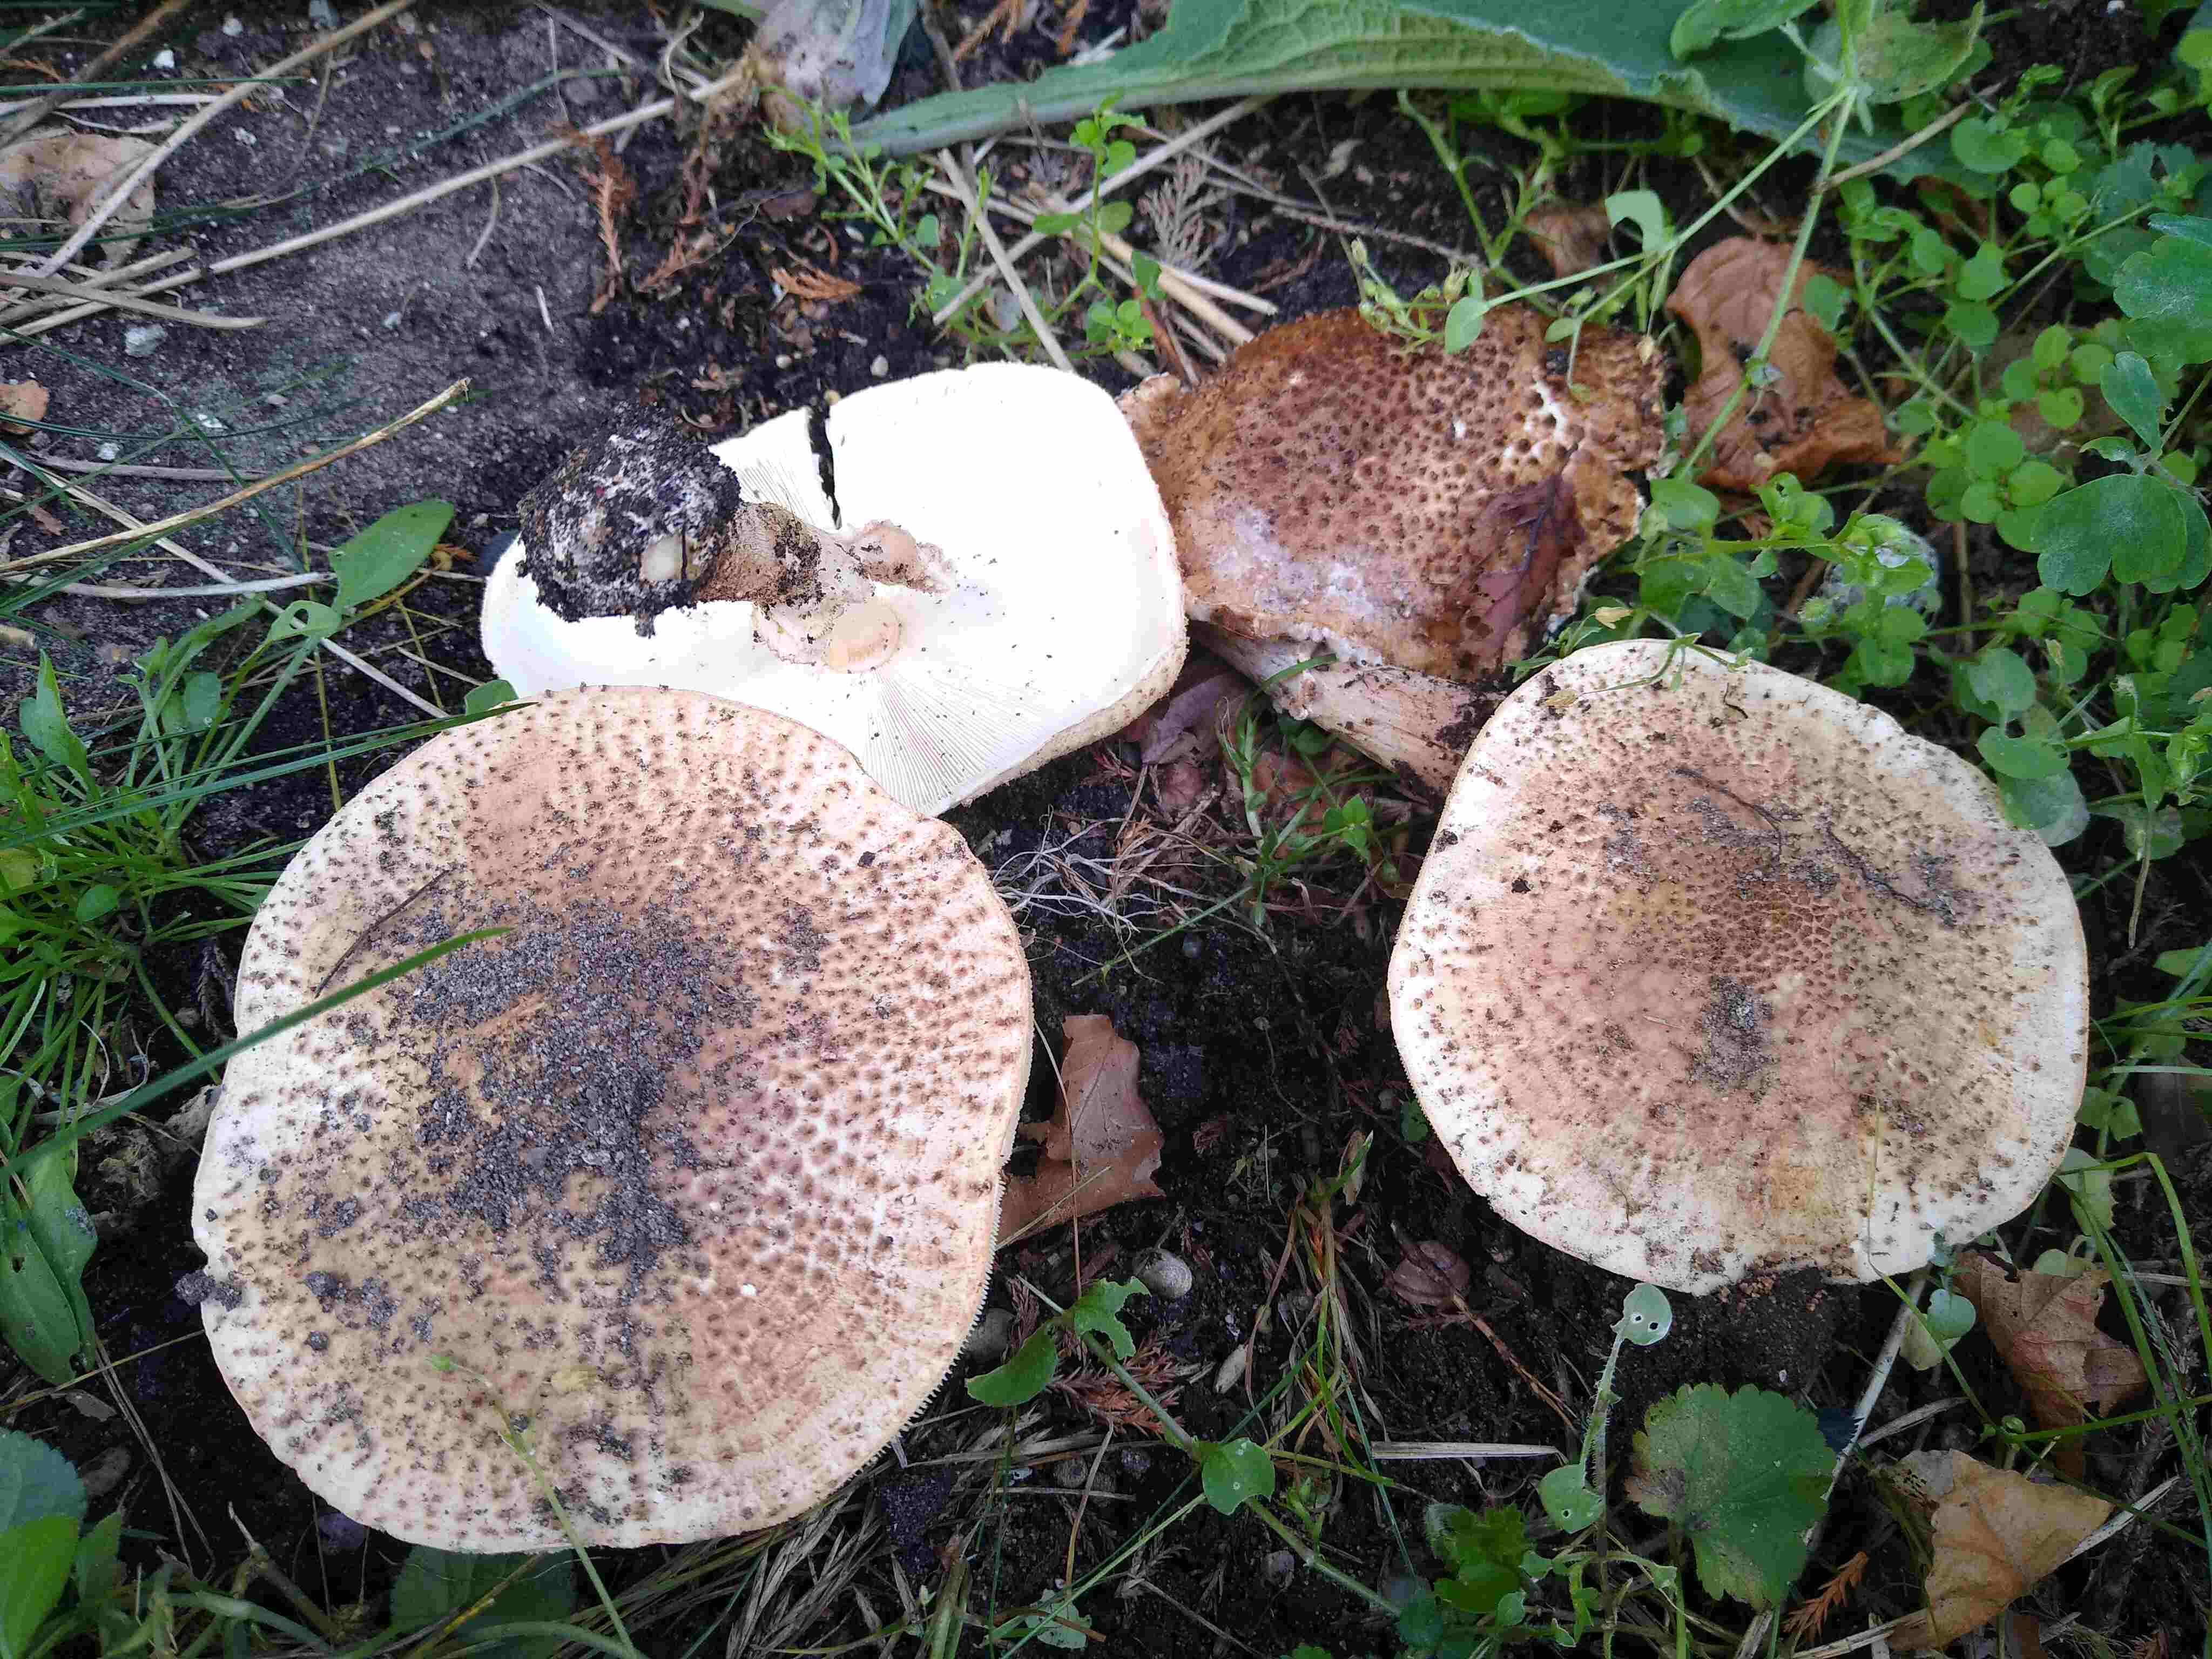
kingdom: Fungi
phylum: Basidiomycota
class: Agaricomycetes
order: Agaricales
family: Agaricaceae
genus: Echinoderma
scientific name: Echinoderma asperum
